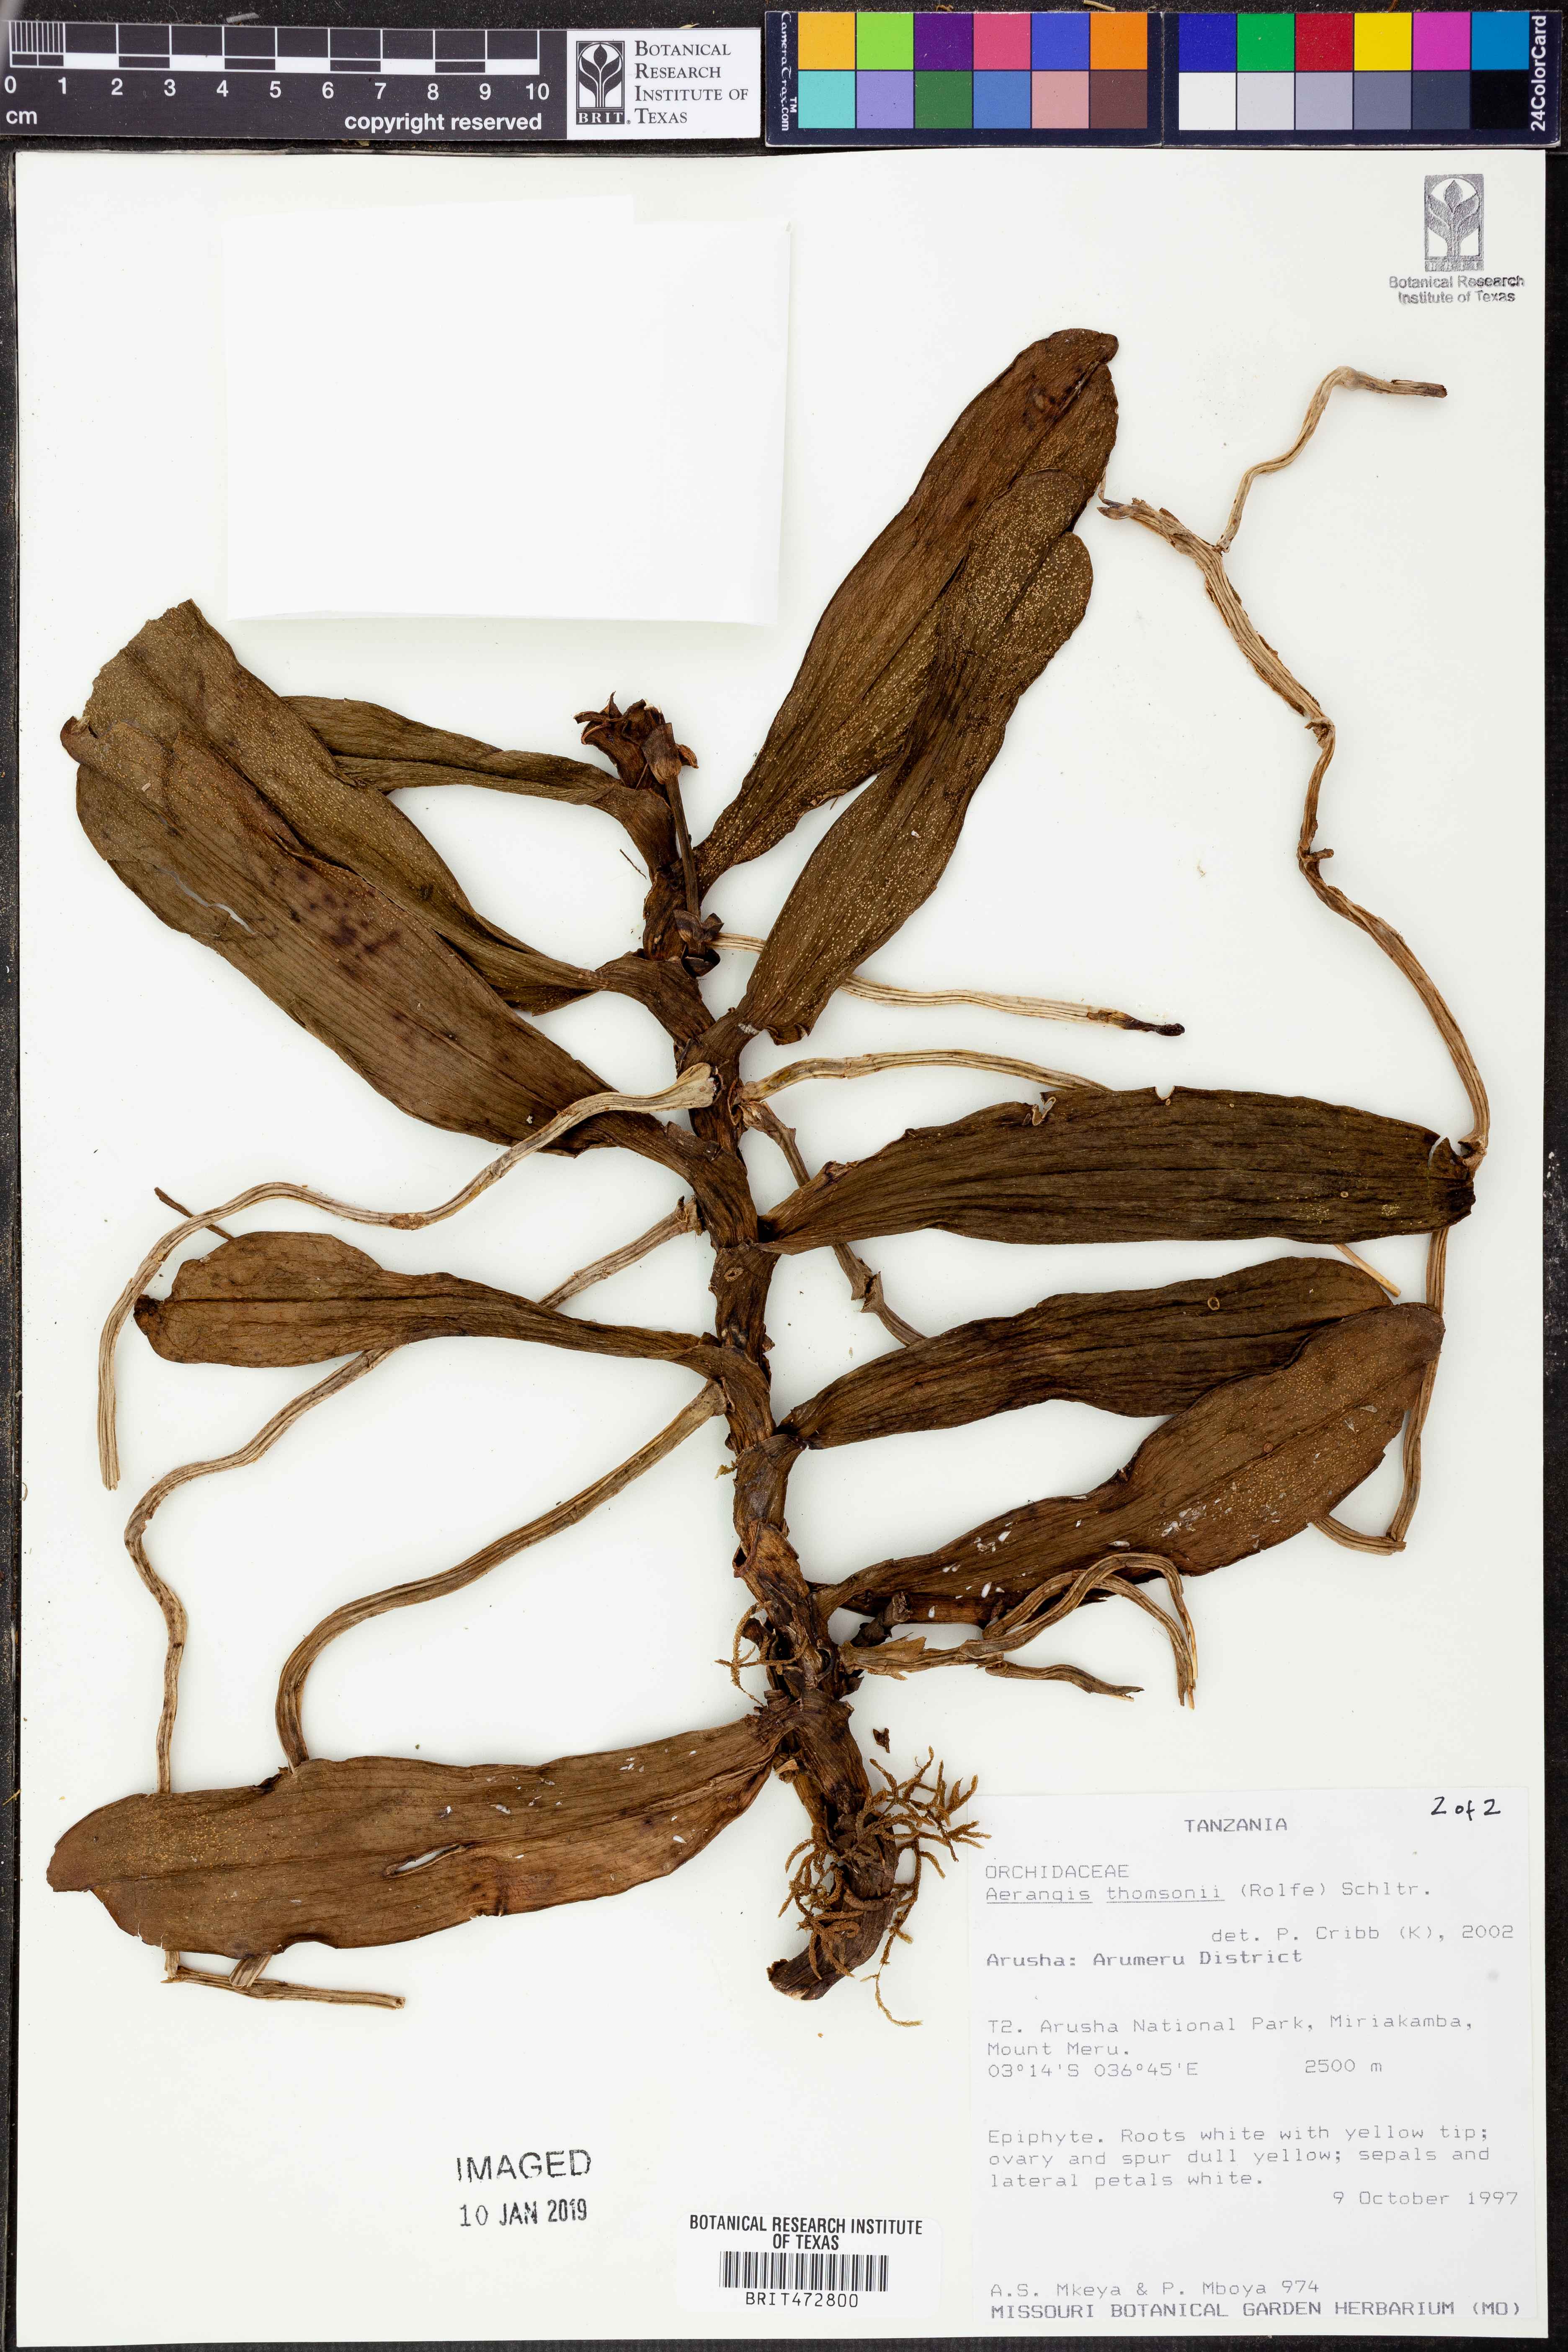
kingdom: Plantae
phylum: Tracheophyta
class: Liliopsida
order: Asparagales
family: Orchidaceae
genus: Aerangis
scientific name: Aerangis thomsonii
